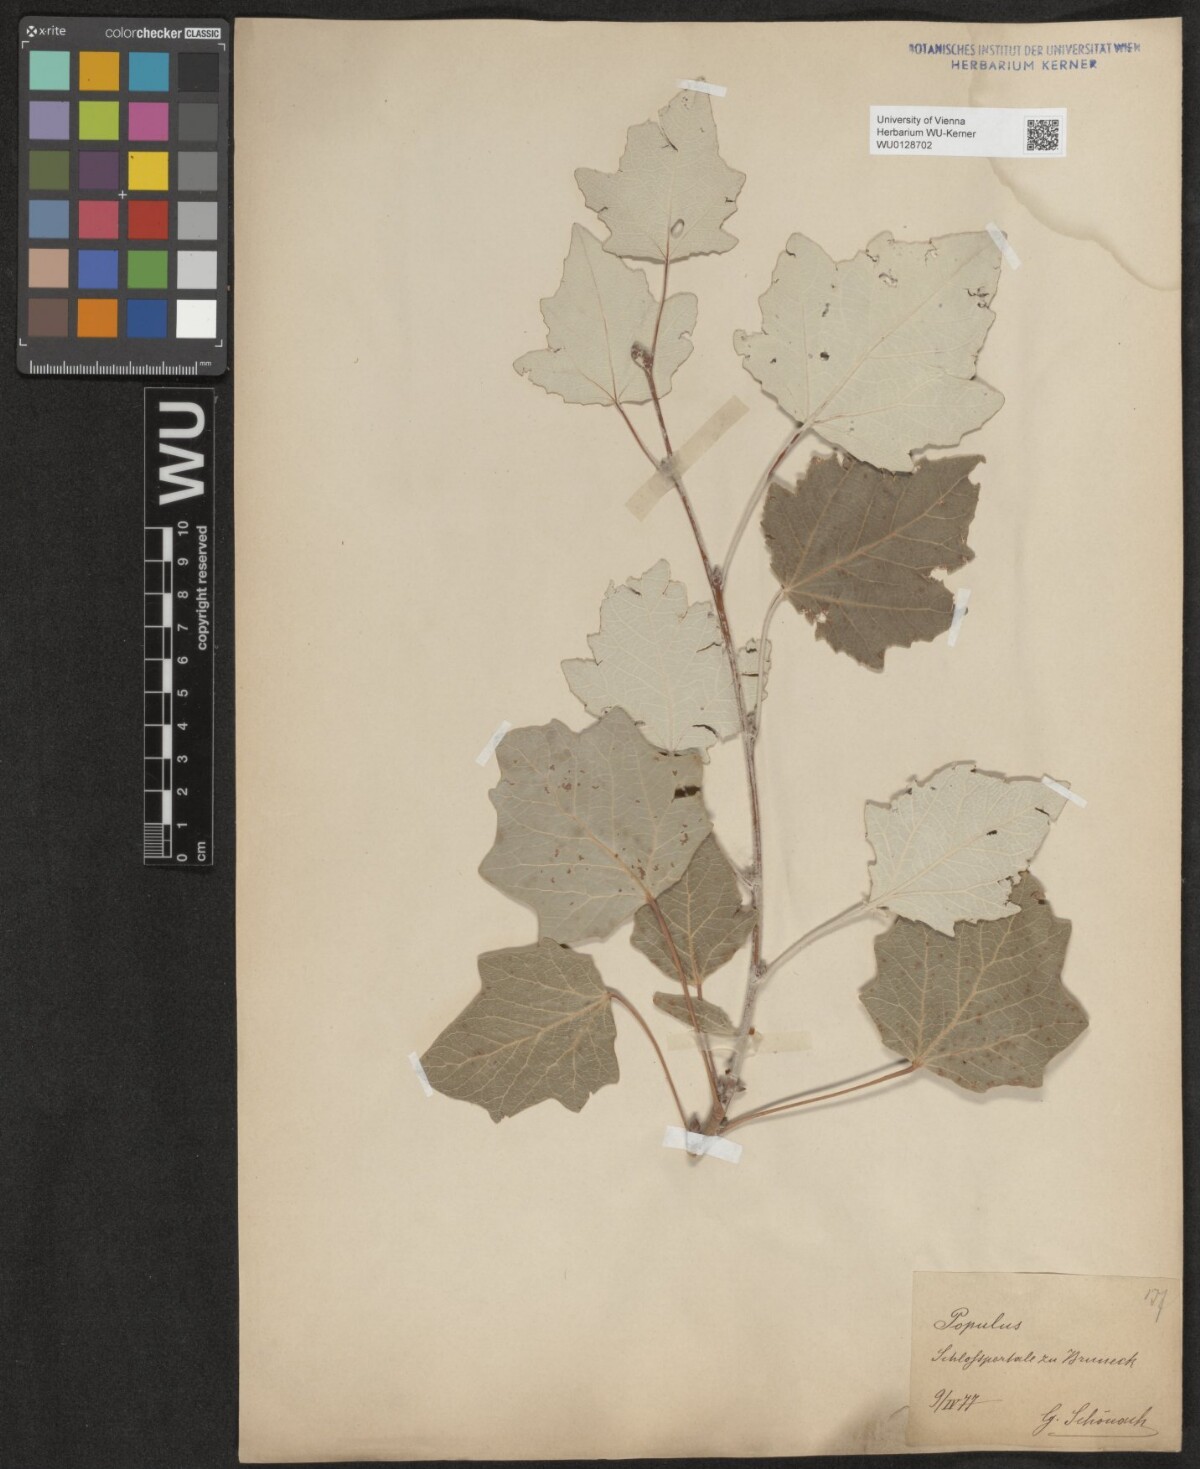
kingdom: Plantae
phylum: Tracheophyta
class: Magnoliopsida
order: Malpighiales
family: Salicaceae
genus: Populus
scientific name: Populus
